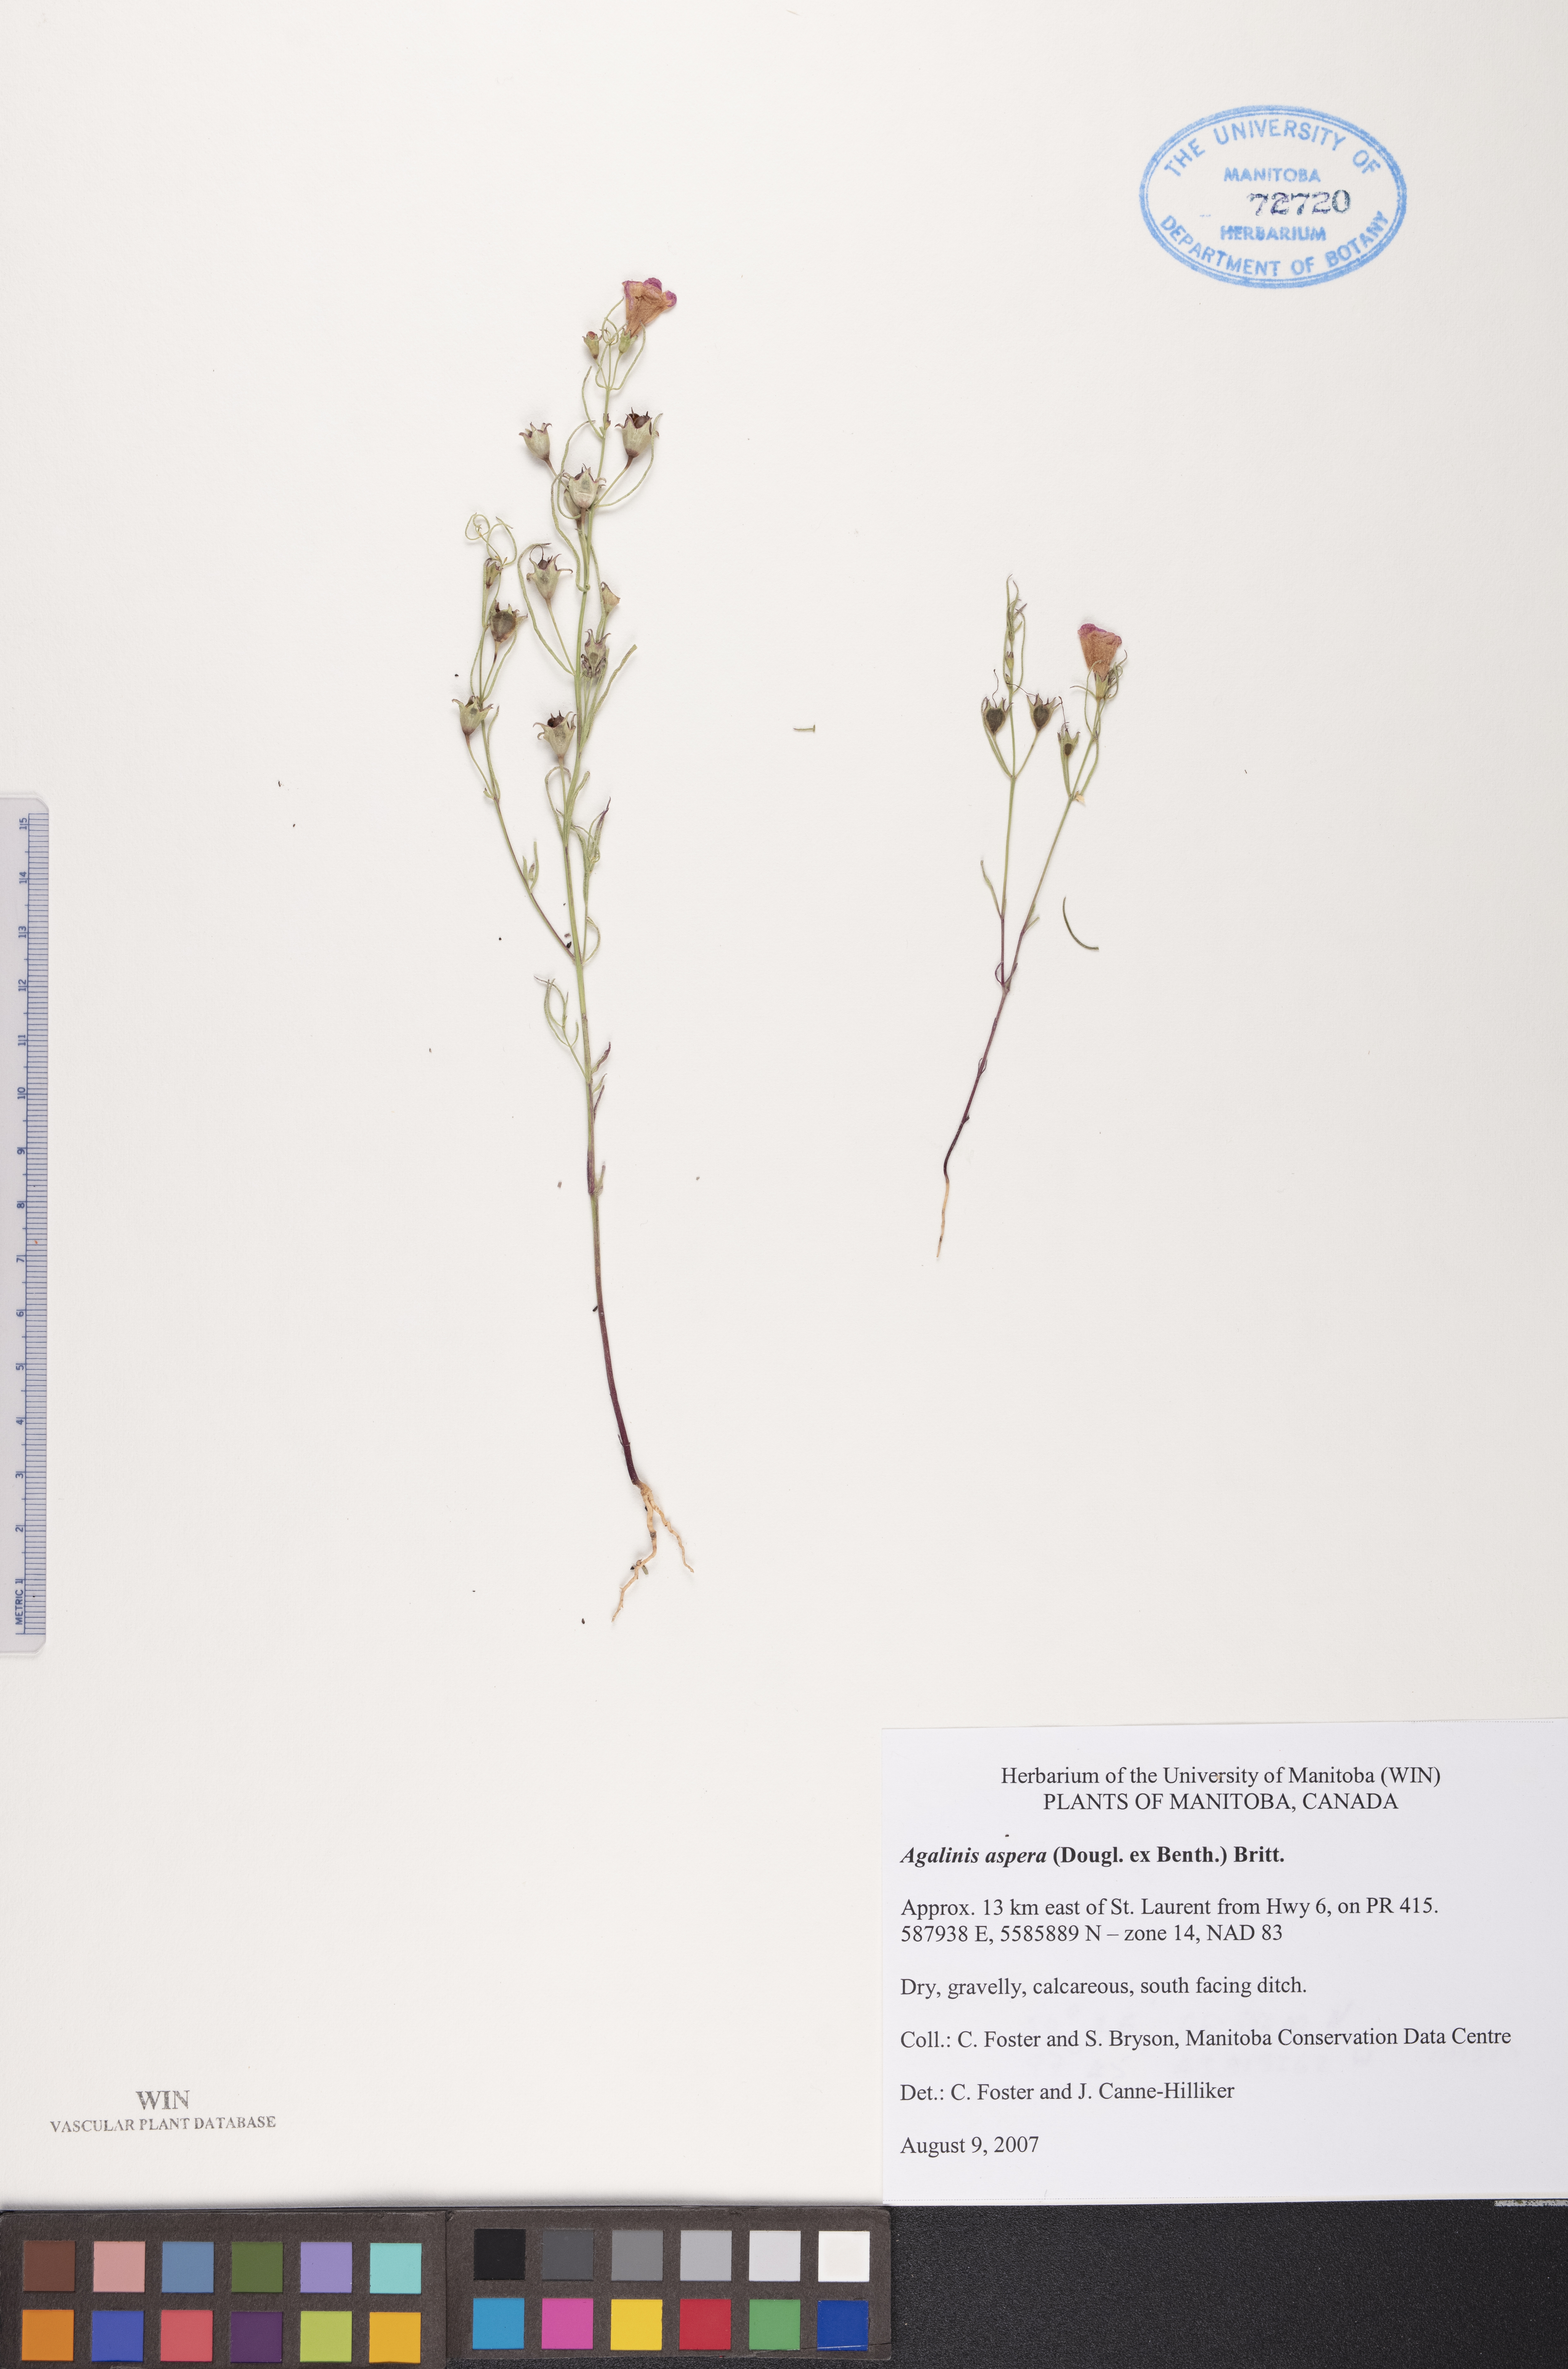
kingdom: Plantae
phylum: Tracheophyta
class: Magnoliopsida
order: Lamiales
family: Orobanchaceae
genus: Agalinis
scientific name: Agalinis aspera
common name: Rough agalinis
